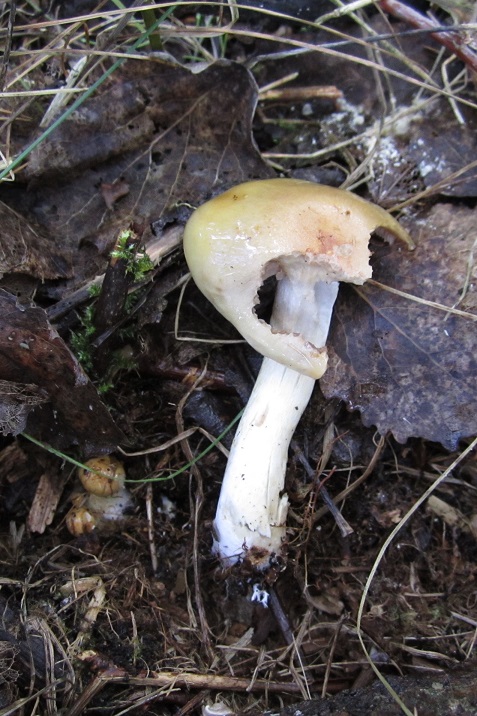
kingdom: Fungi
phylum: Basidiomycota
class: Agaricomycetes
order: Agaricales
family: Cortinariaceae
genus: Cortinarius
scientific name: Cortinarius delibutus
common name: gul slørhat
